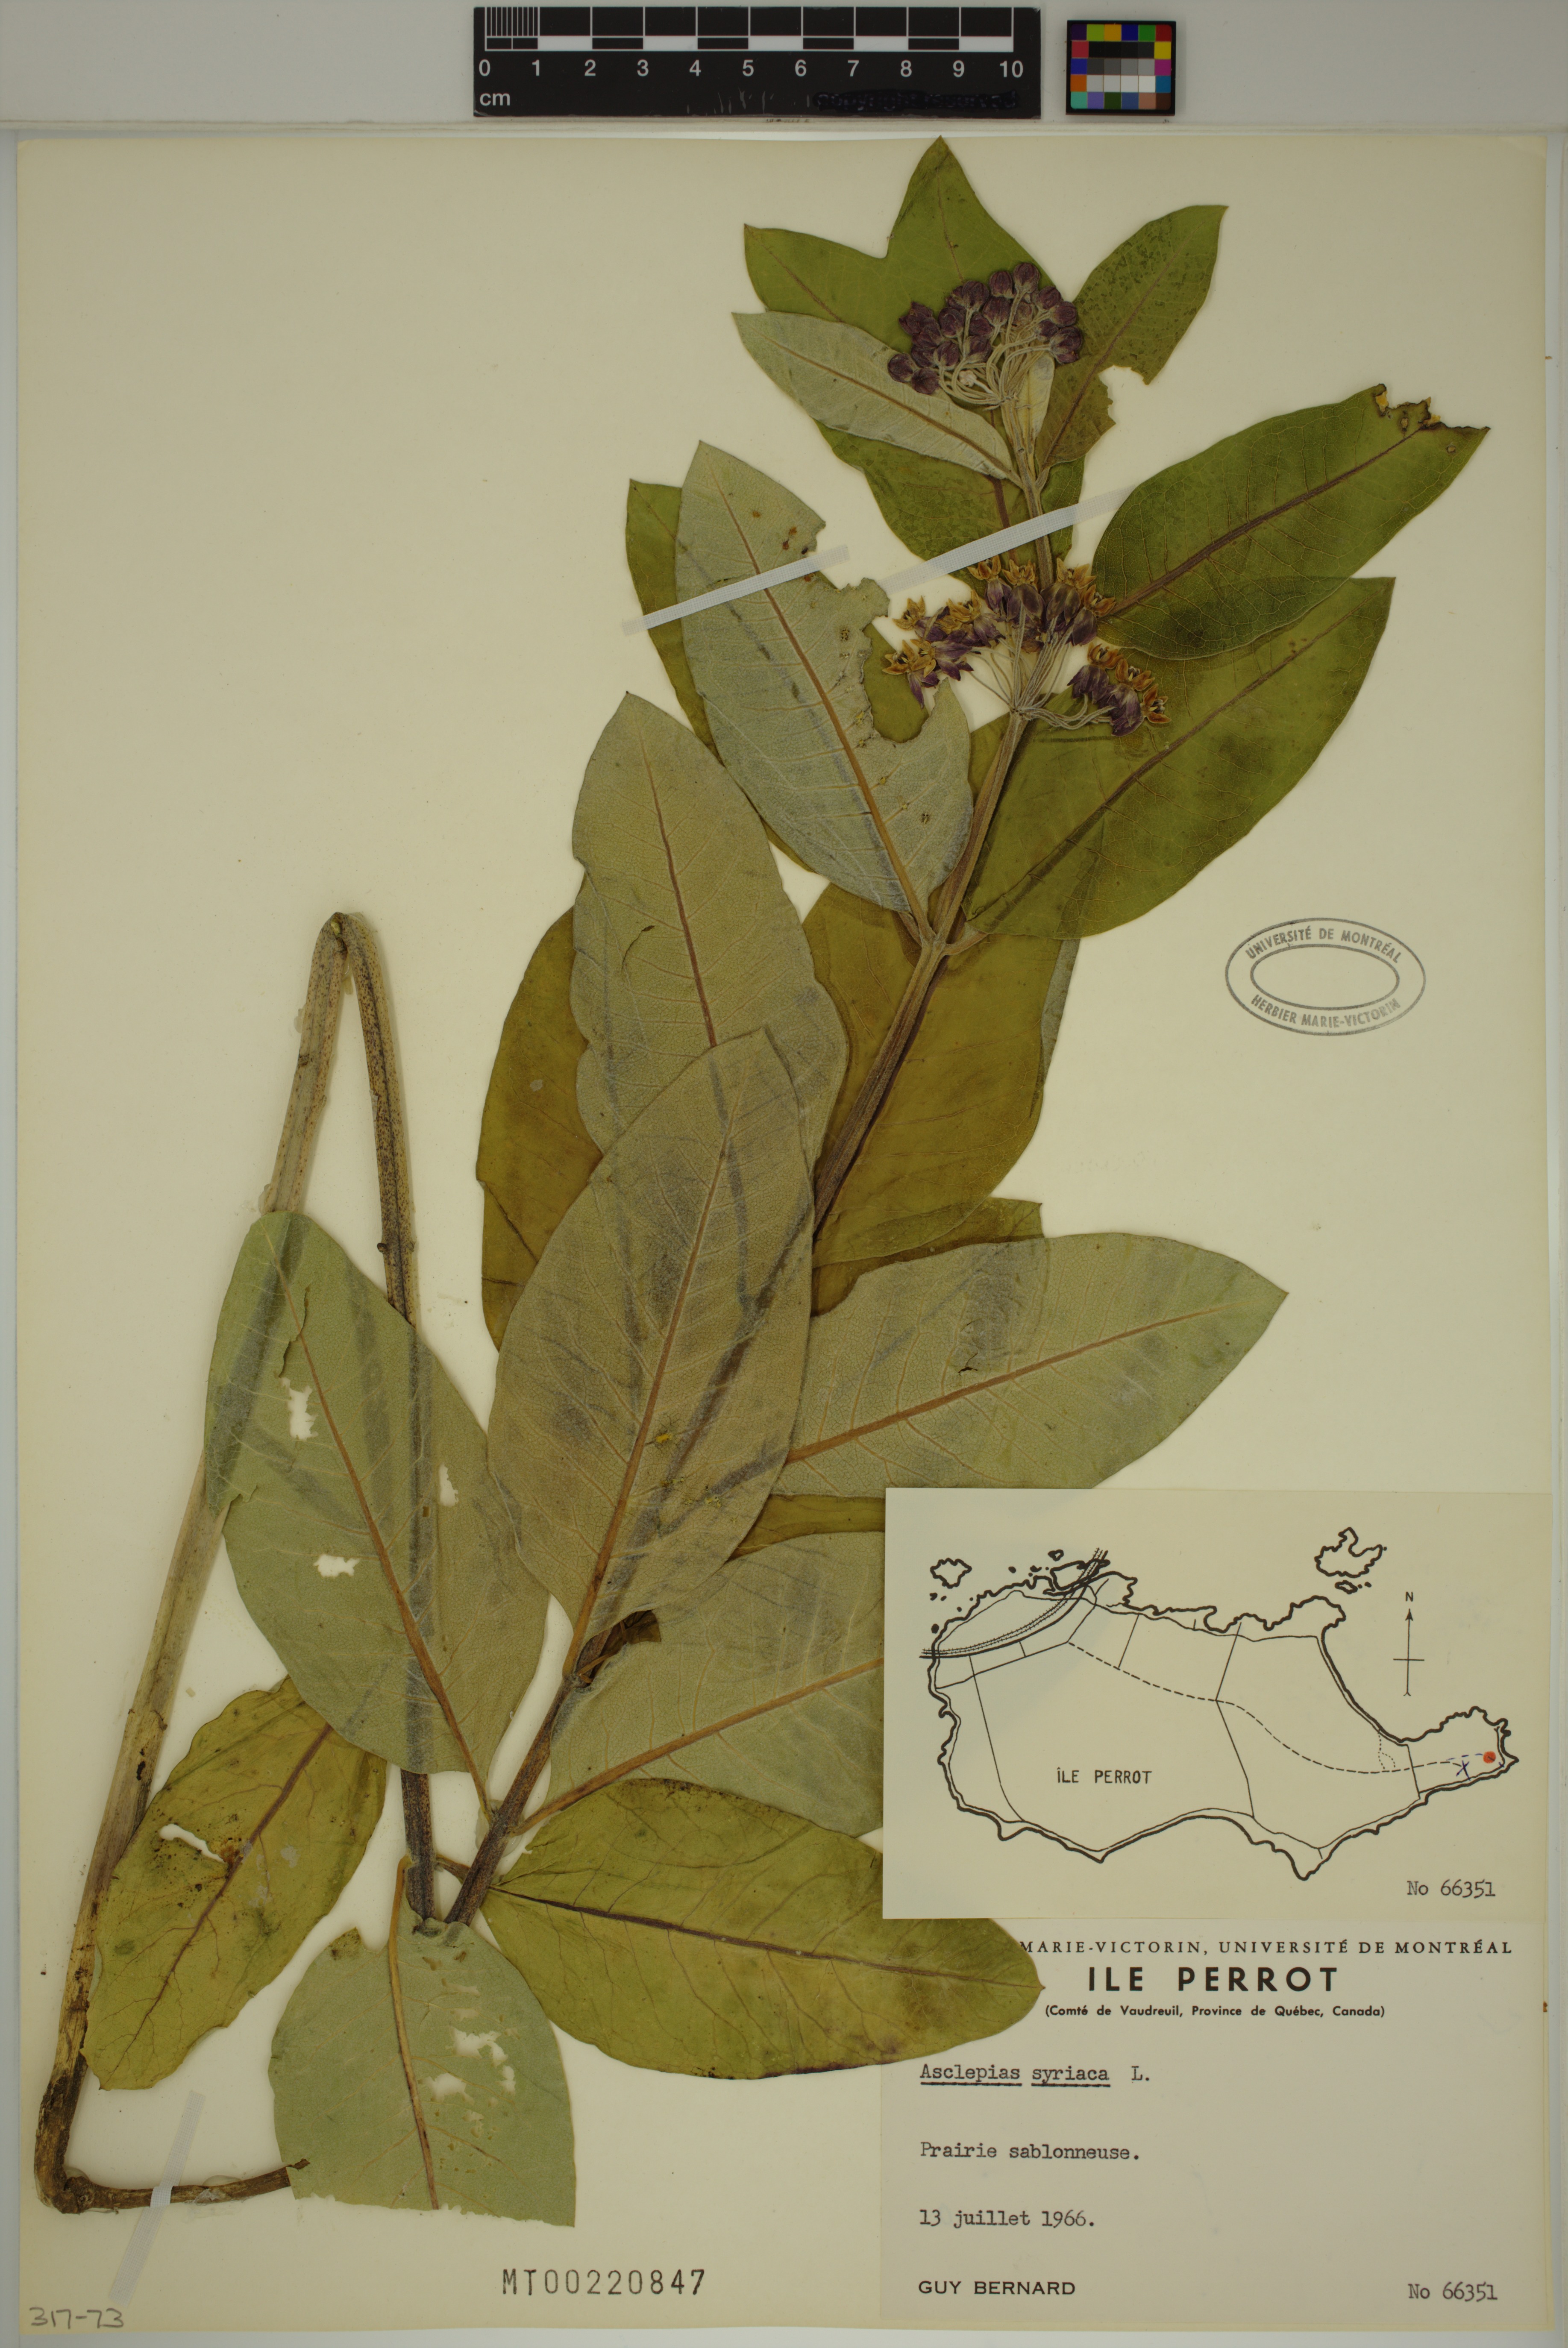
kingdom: Plantae
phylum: Tracheophyta
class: Magnoliopsida
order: Gentianales
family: Apocynaceae
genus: Asclepias
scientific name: Asclepias syriaca
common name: Common milkweed
